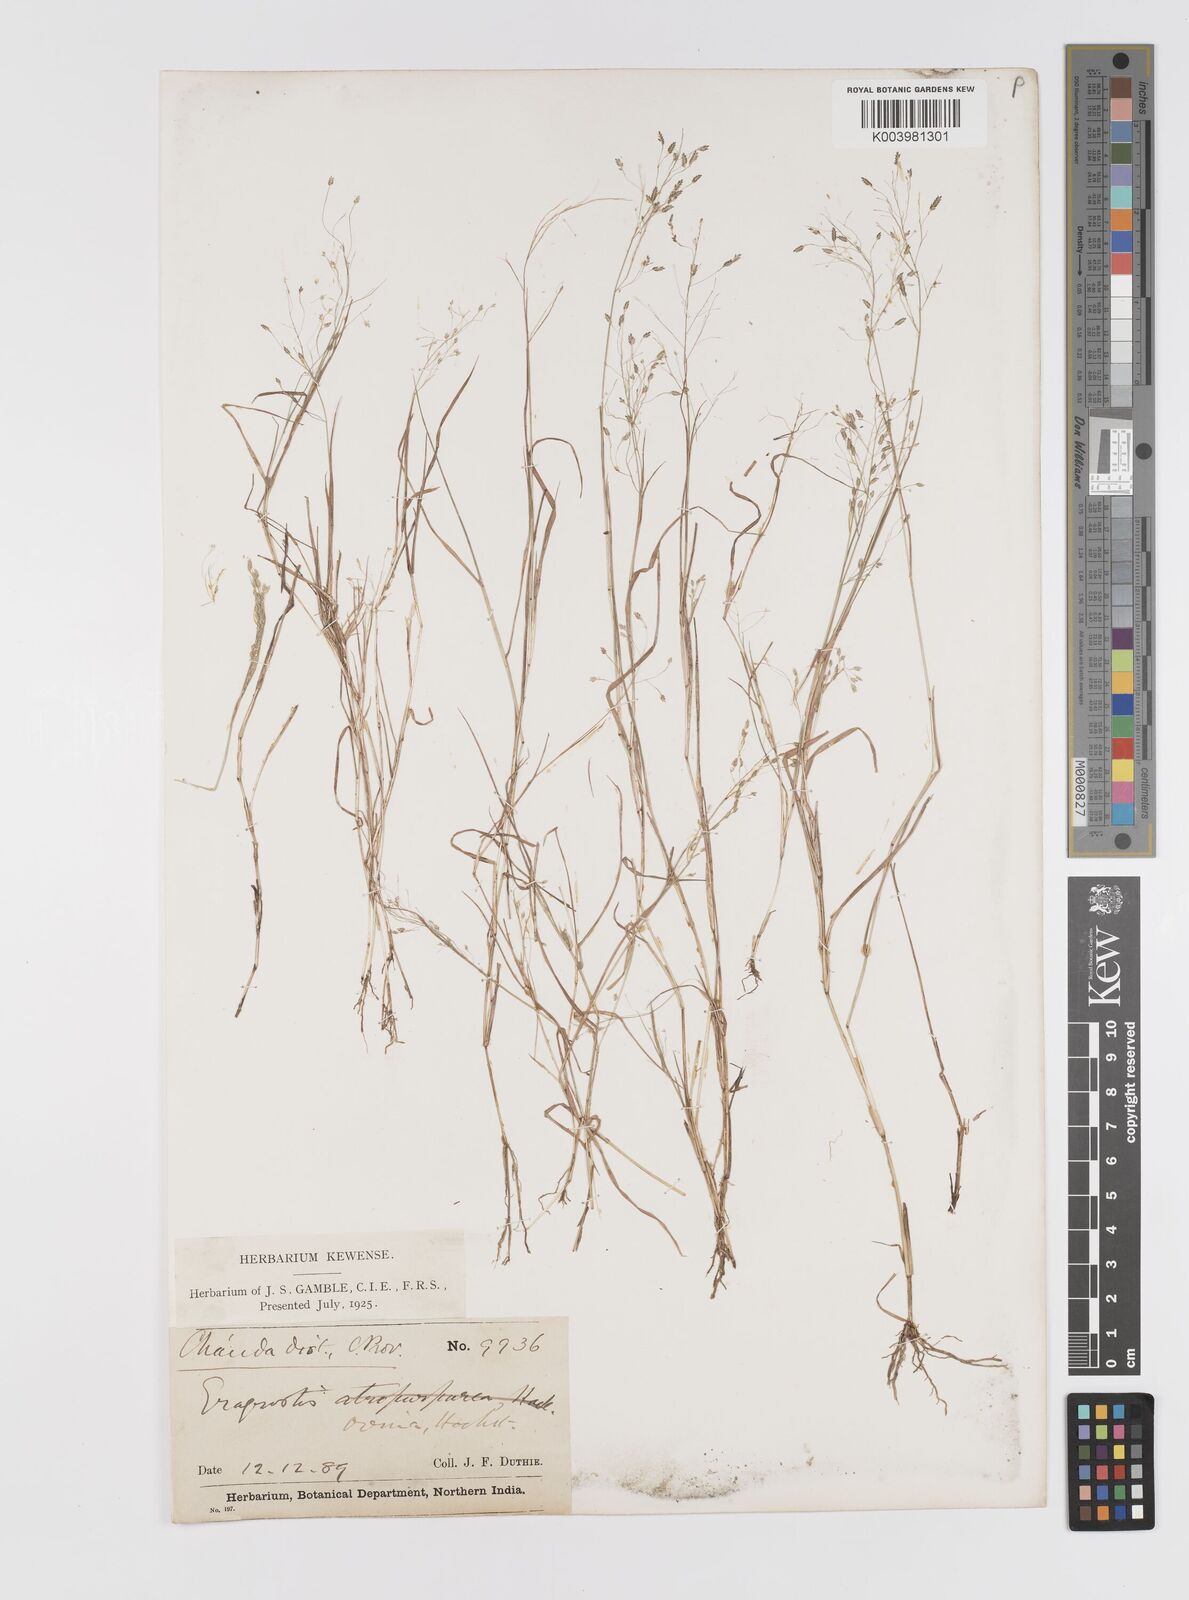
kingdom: Plantae
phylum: Tracheophyta
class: Liliopsida
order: Poales
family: Poaceae
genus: Eragrostis
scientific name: Eragrostis gangetica
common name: Slimflower lovegrass
